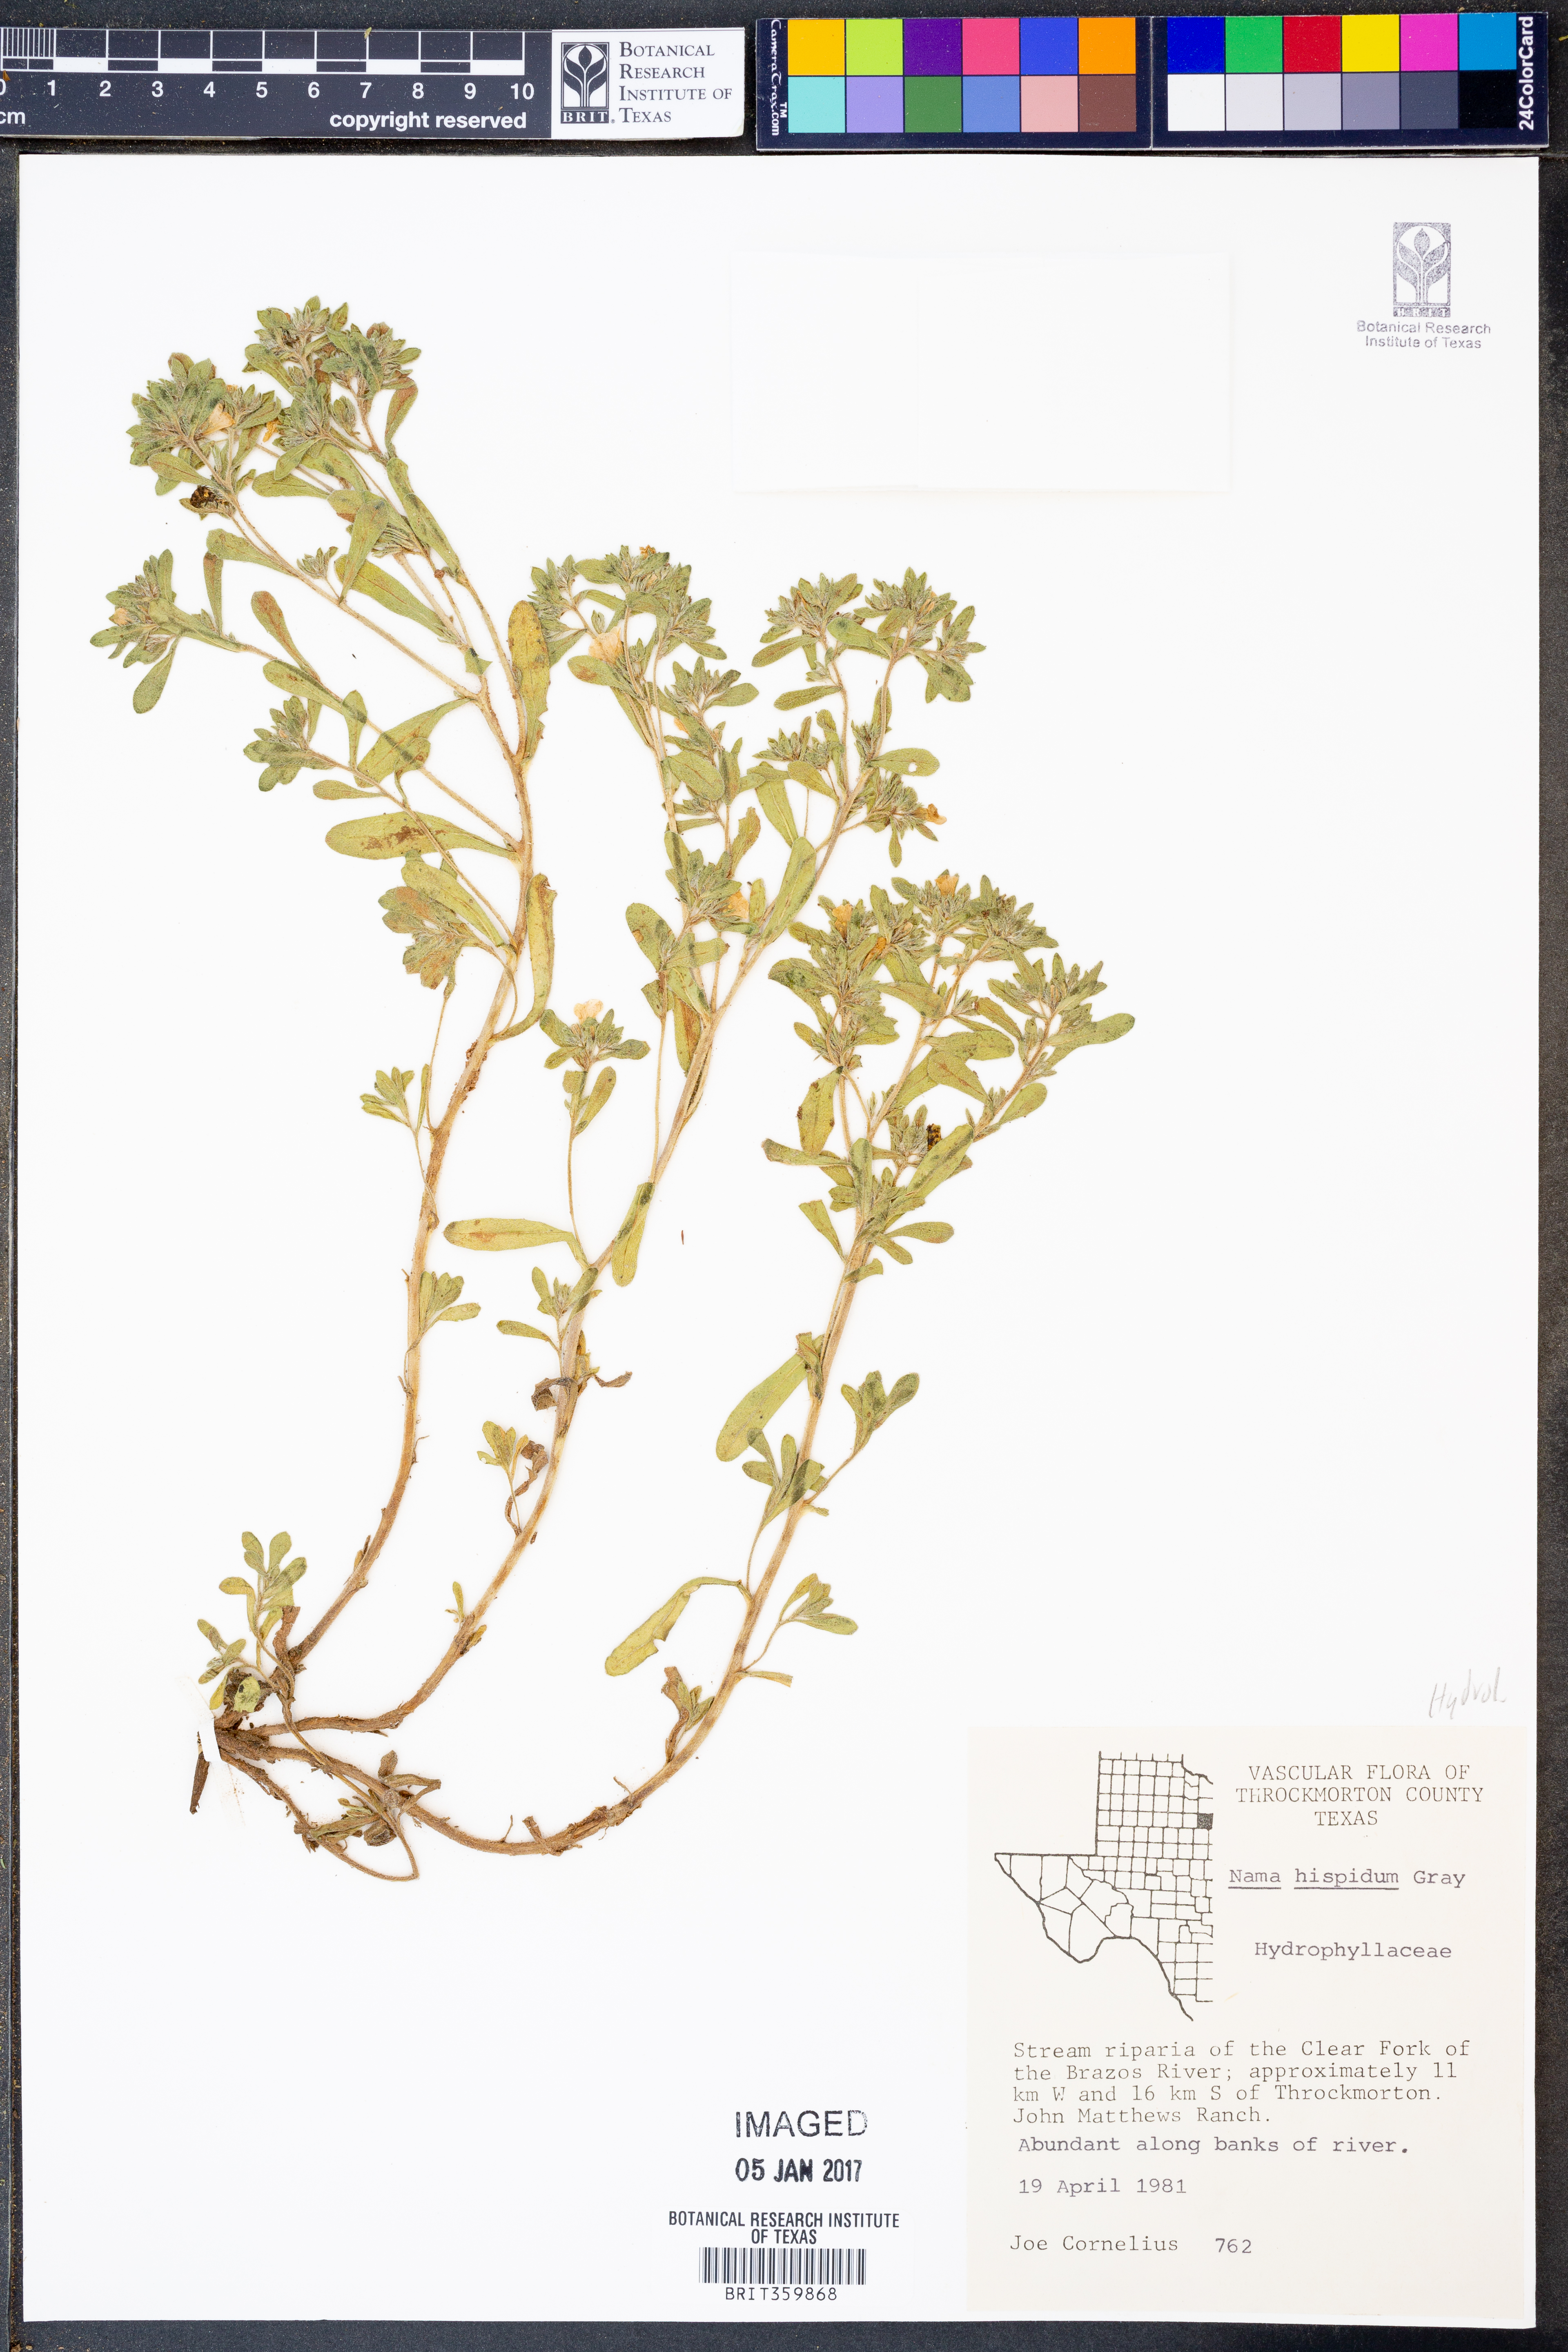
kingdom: Plantae
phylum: Tracheophyta
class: Magnoliopsida
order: Boraginales
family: Namaceae
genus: Nama
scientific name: Nama hispida
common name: Bristly nama
